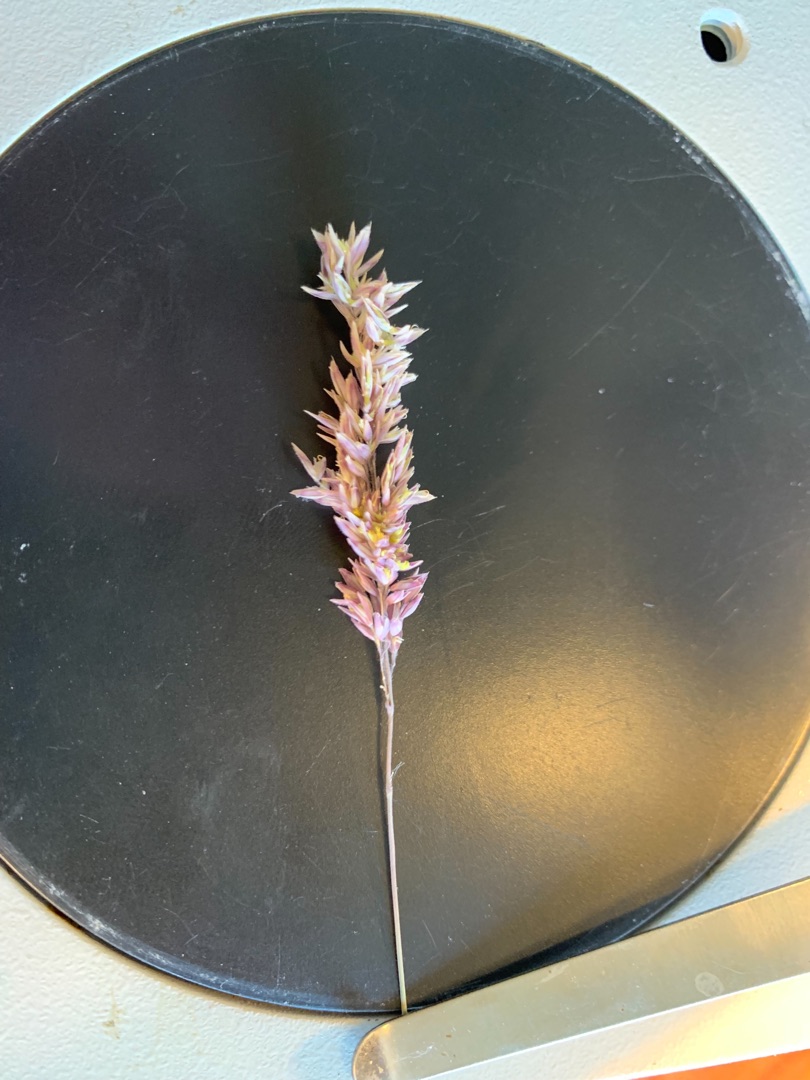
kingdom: Plantae
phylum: Tracheophyta
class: Liliopsida
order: Poales
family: Poaceae
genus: Holcus
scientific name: Holcus lanatus
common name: Fløjlsgræs
